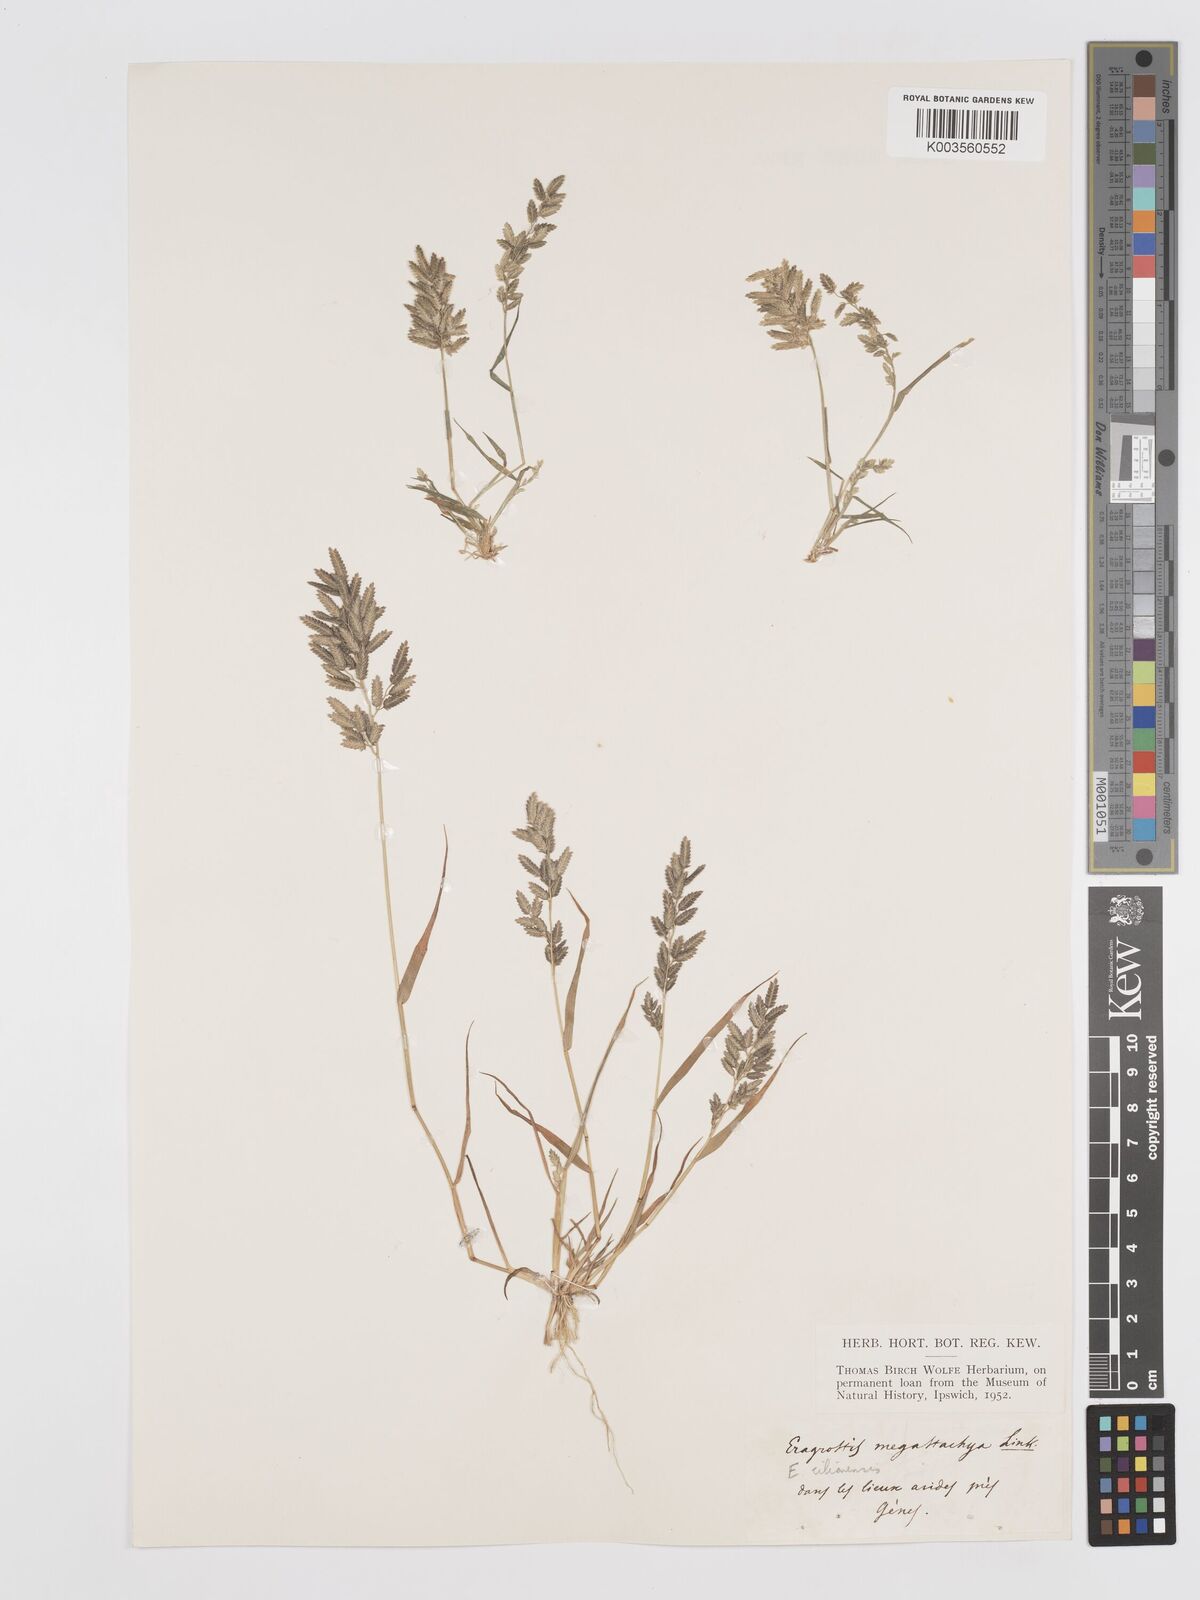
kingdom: Plantae
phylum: Tracheophyta
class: Liliopsida
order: Poales
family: Poaceae
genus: Eragrostis
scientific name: Eragrostis cilianensis
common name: Stinkgrass
